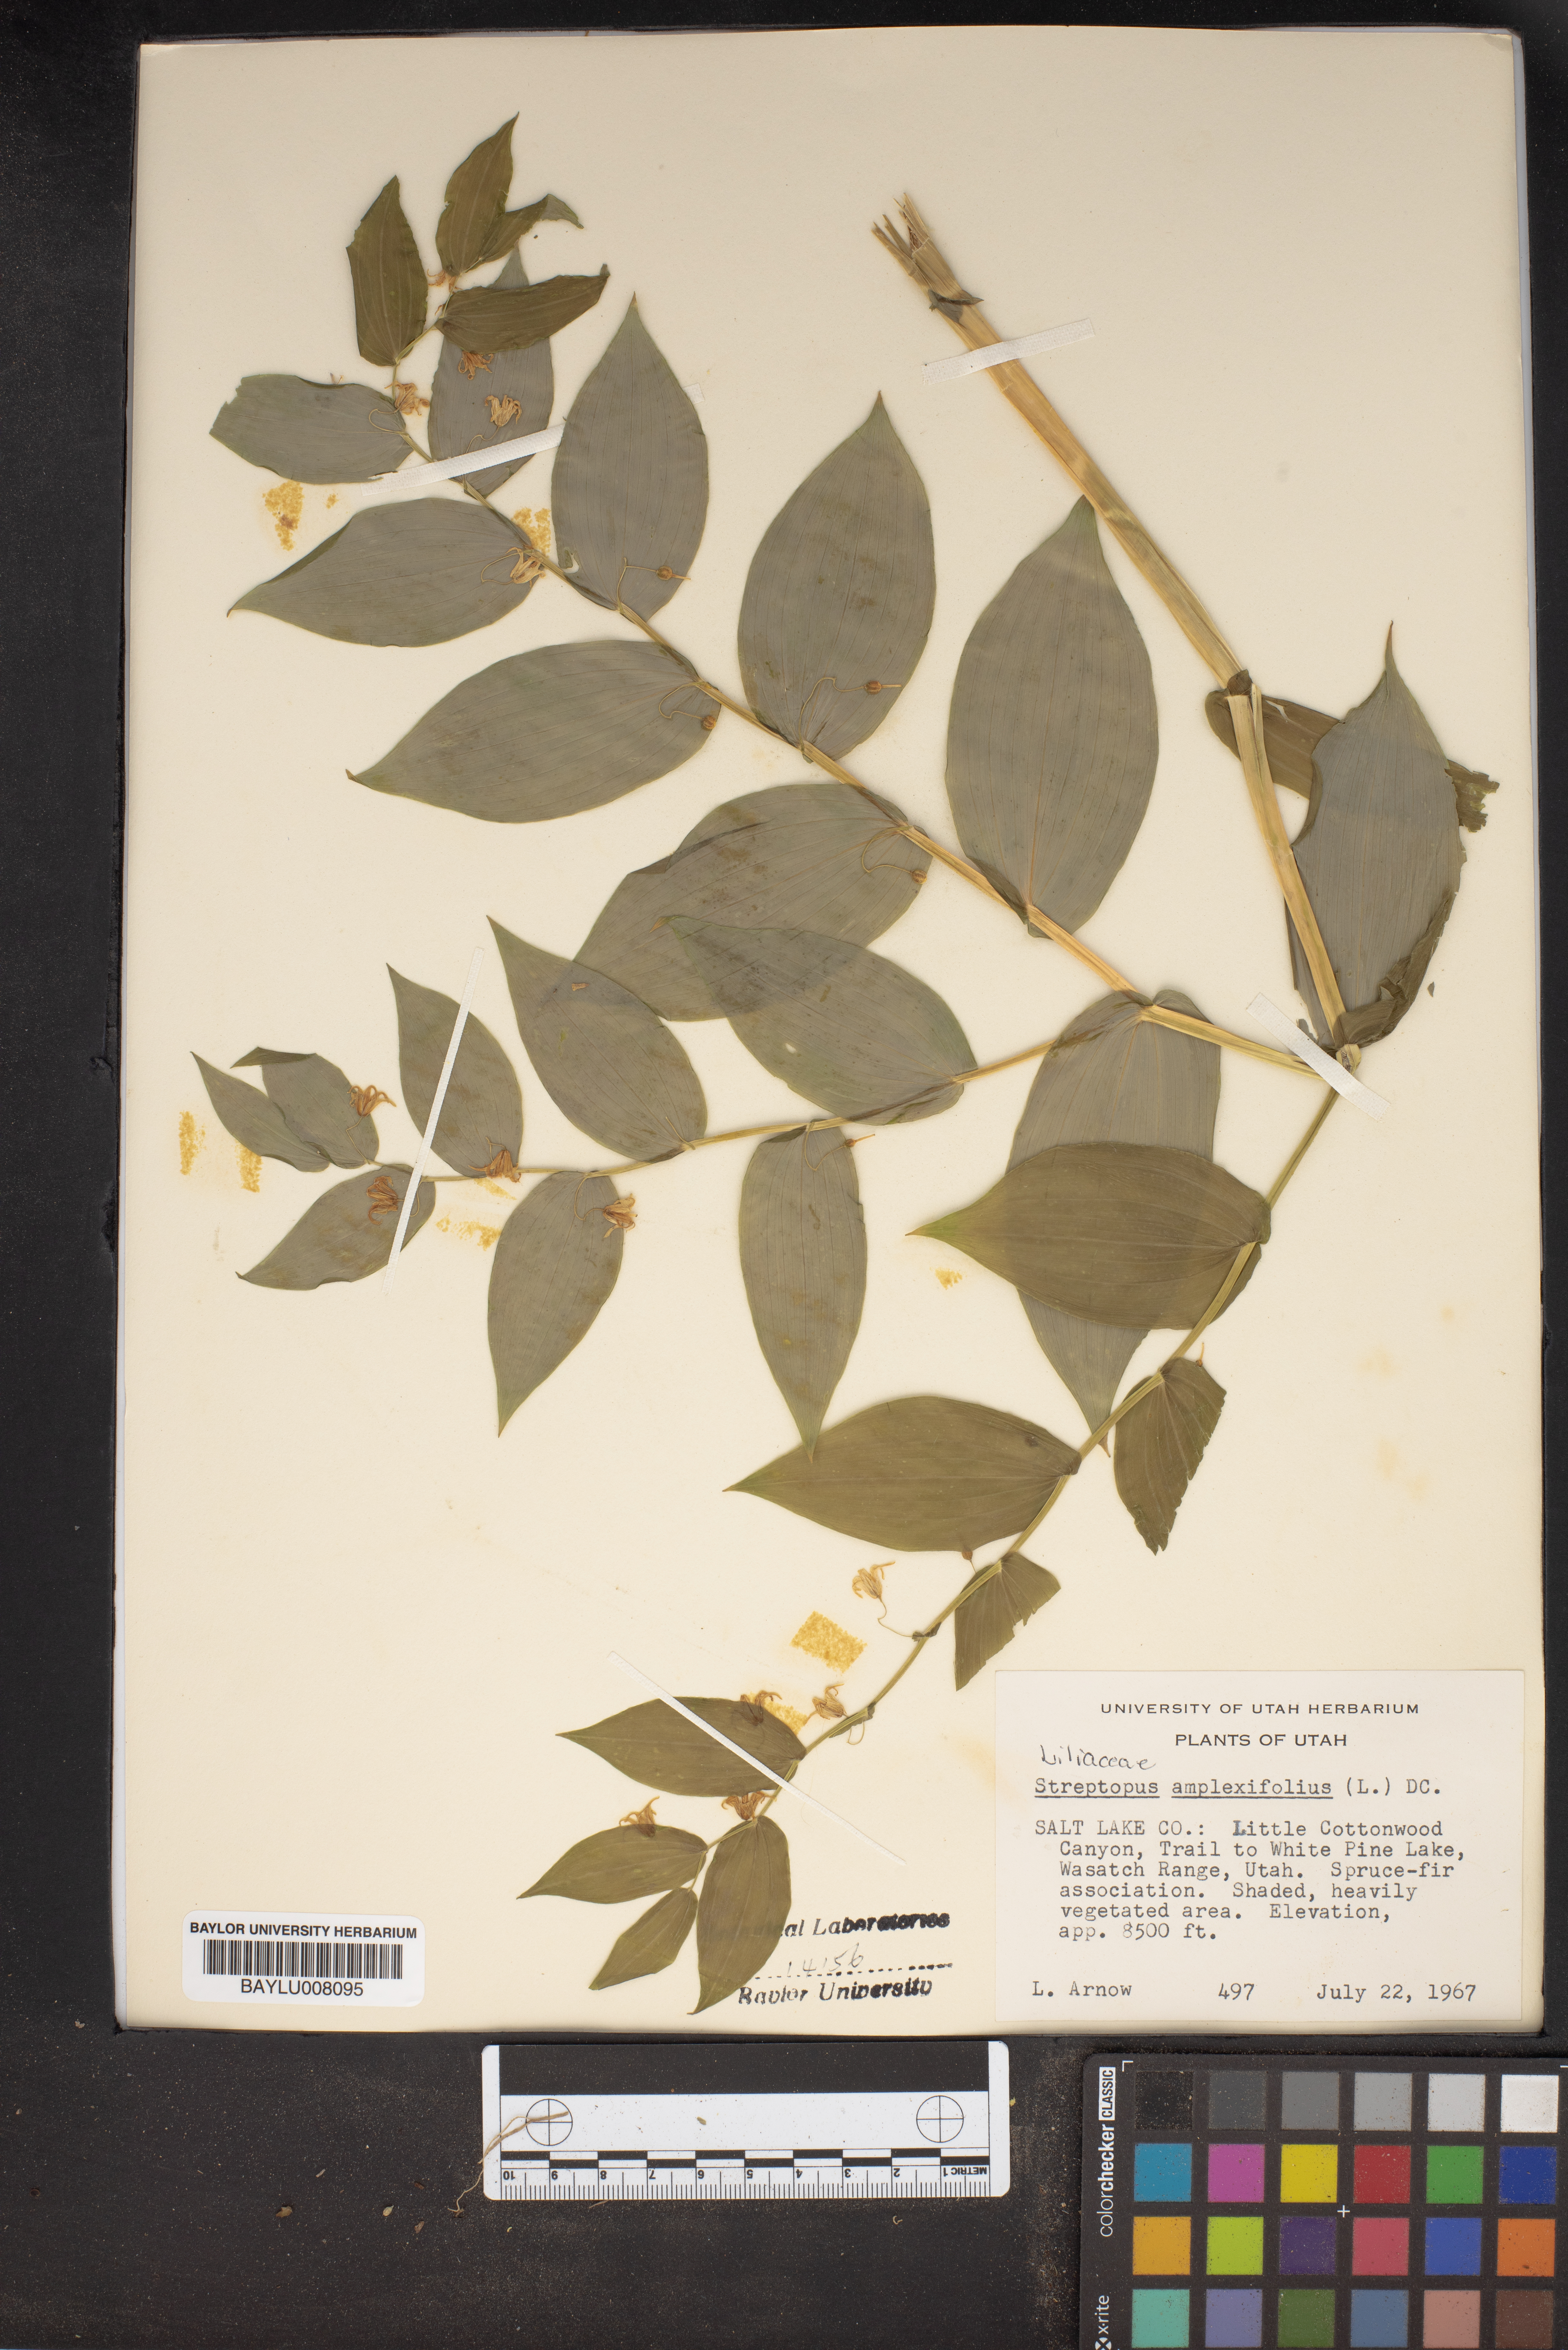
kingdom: Plantae
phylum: Tracheophyta
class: Liliopsida
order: Liliales
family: Liliaceae
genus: Streptopus
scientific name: Streptopus amplexifolius
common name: Clasp twisted stalk
